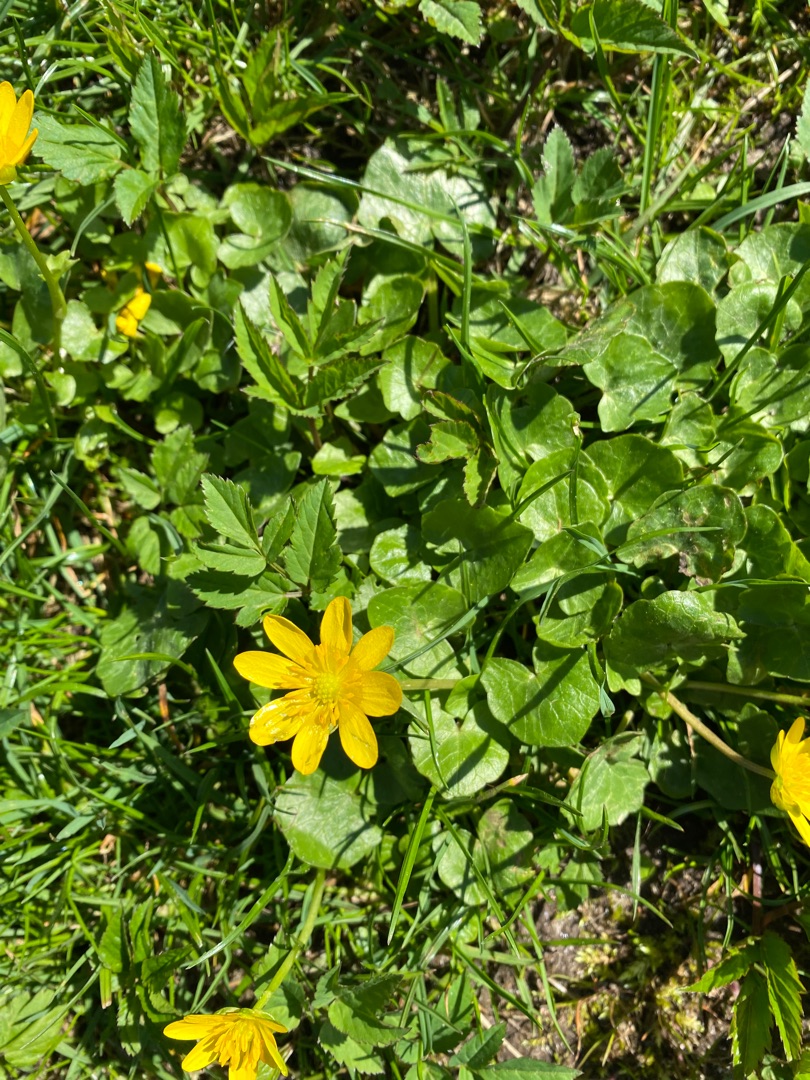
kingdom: Plantae
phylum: Tracheophyta
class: Magnoliopsida
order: Ranunculales
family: Ranunculaceae
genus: Ficaria
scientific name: Ficaria verna
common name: Vorterod
